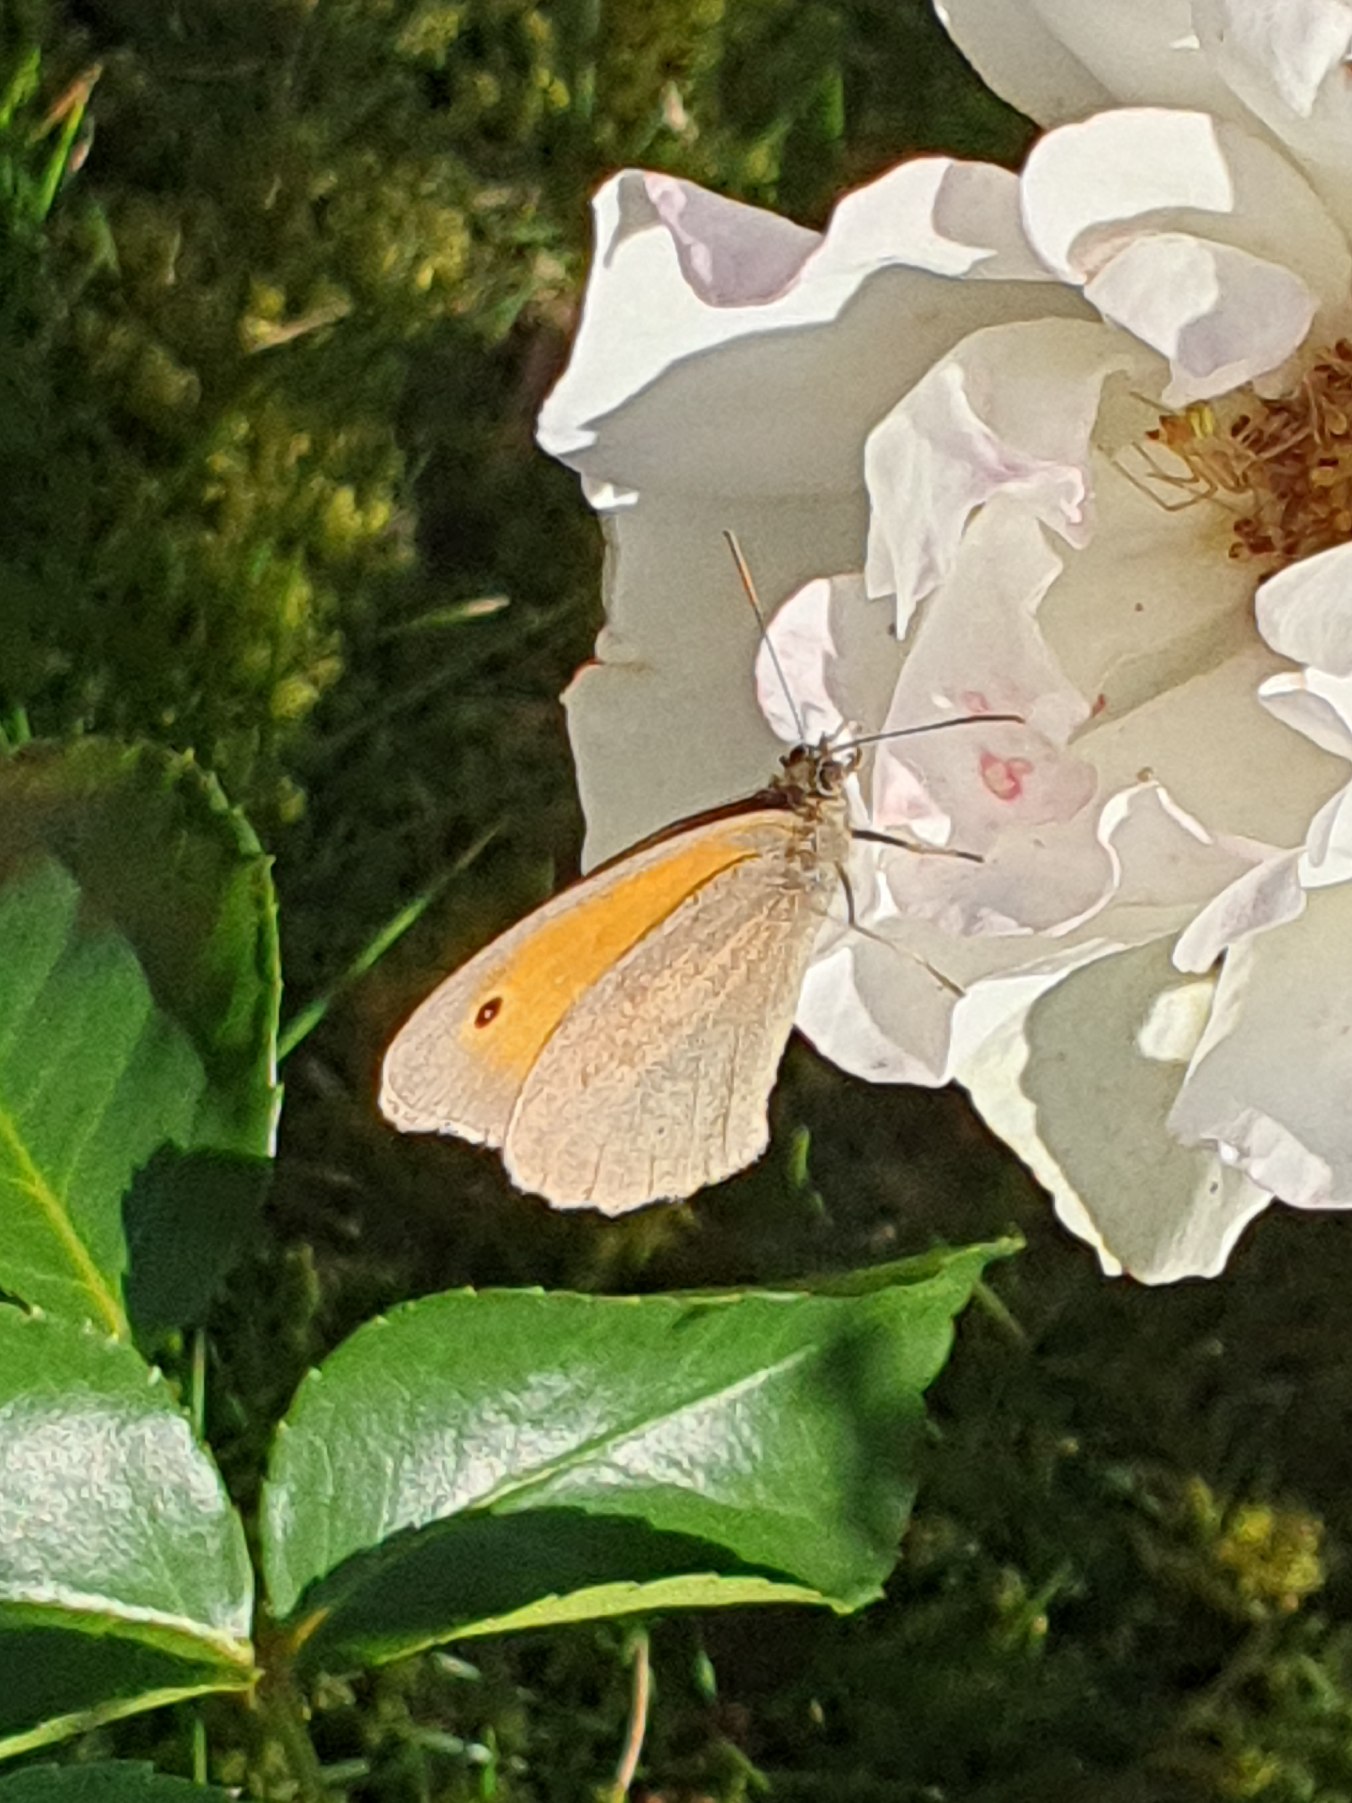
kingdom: Animalia
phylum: Arthropoda
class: Insecta
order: Lepidoptera
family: Nymphalidae
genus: Maniola
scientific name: Maniola jurtina
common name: Græsrandøje
